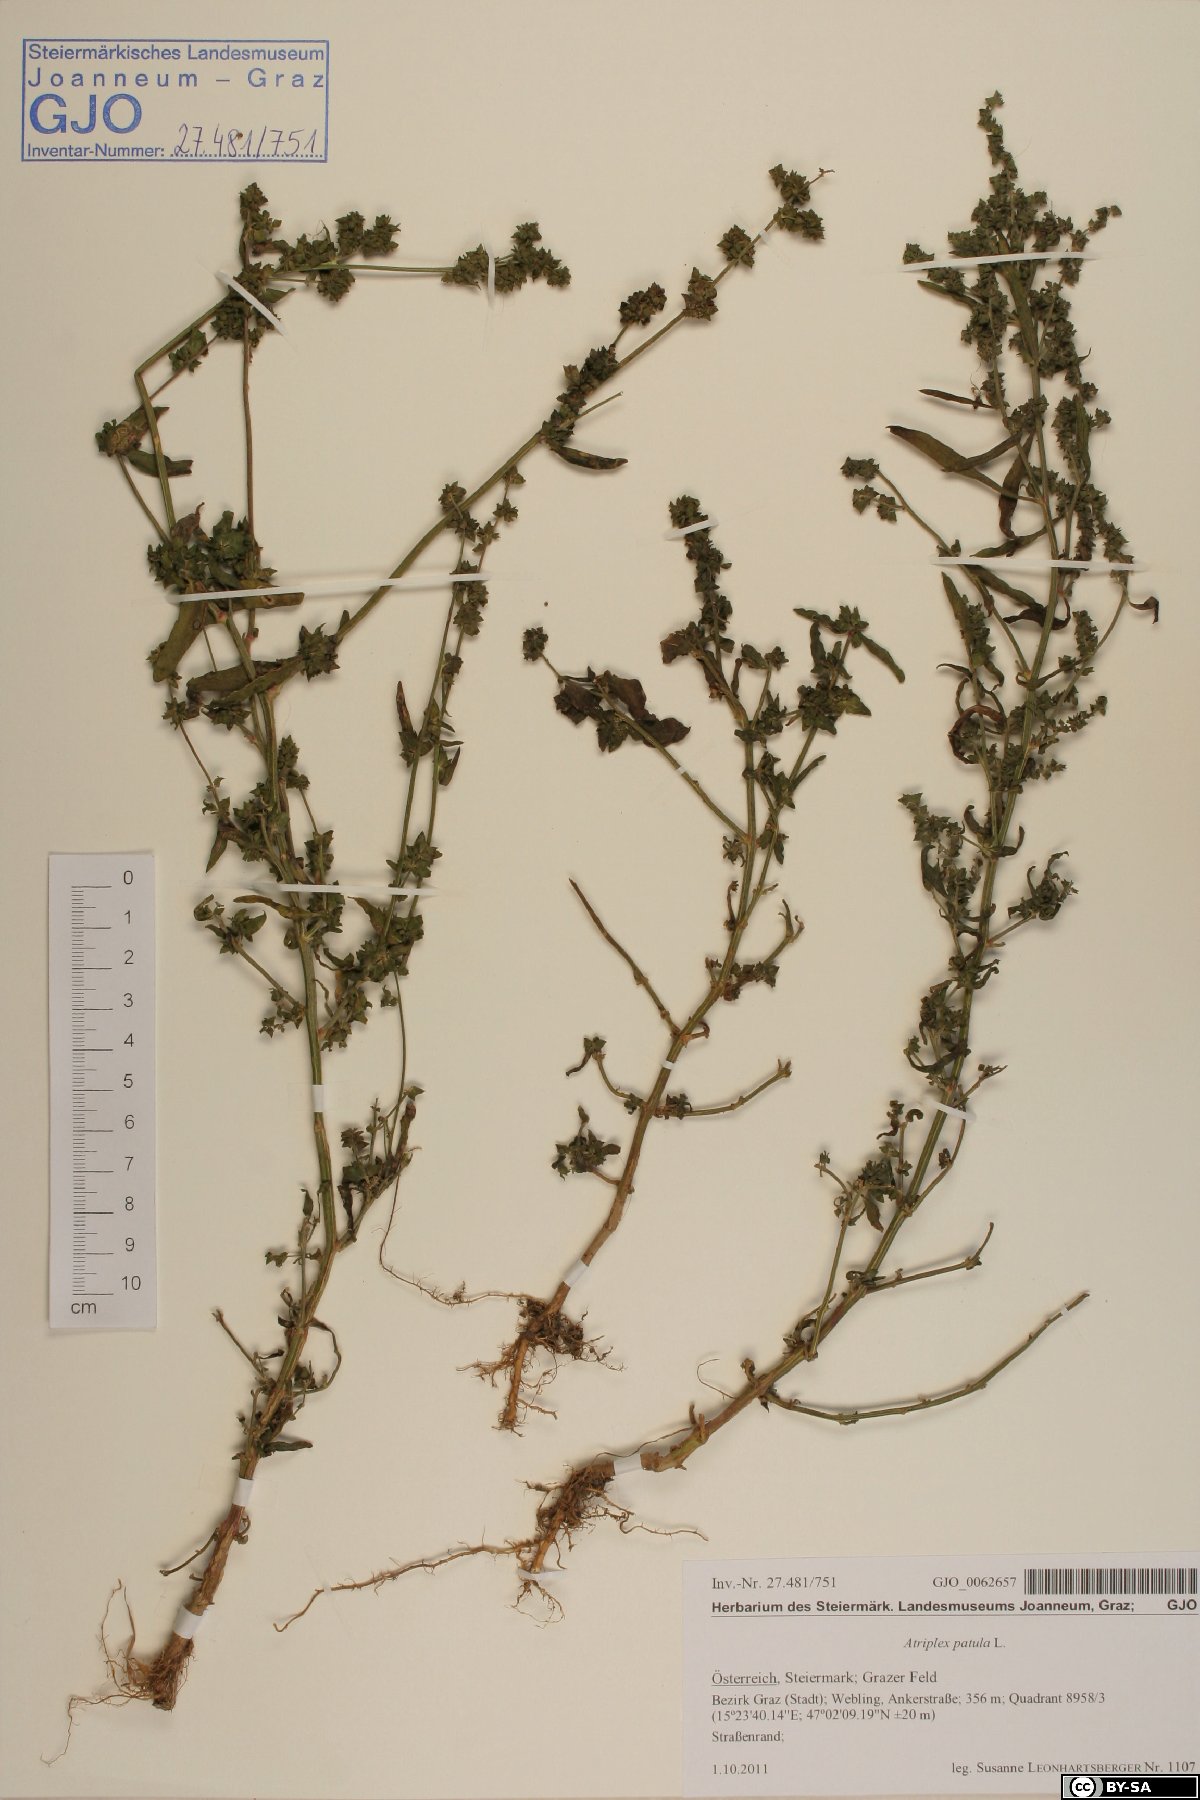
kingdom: Plantae
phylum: Tracheophyta
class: Magnoliopsida
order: Caryophyllales
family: Amaranthaceae
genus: Atriplex
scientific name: Atriplex patula
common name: Common orache
